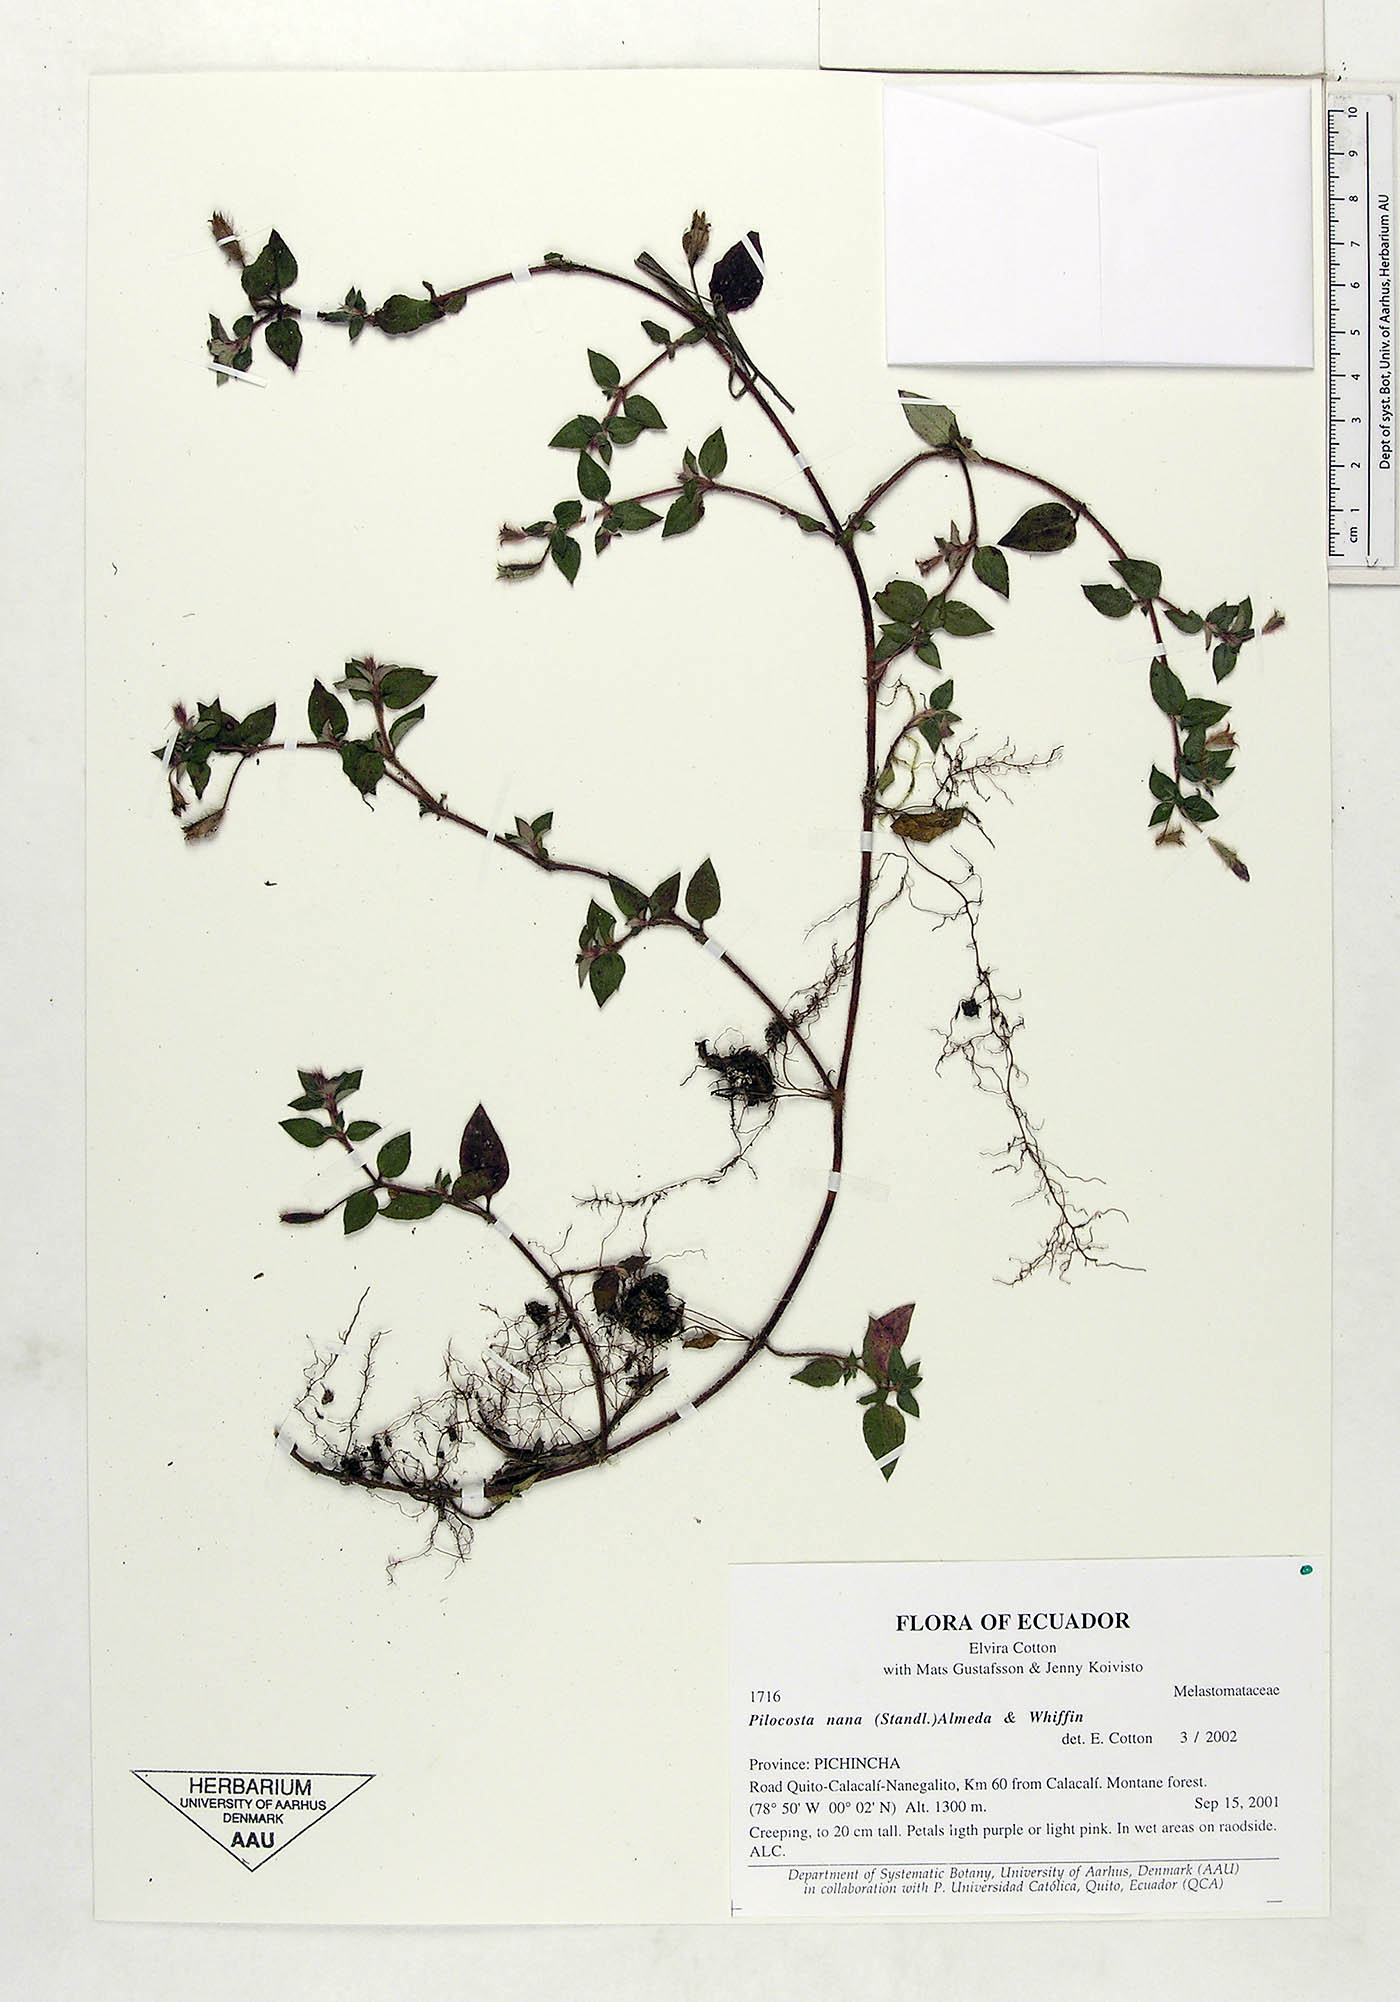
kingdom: Plantae
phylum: Tracheophyta
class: Magnoliopsida
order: Myrtales
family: Melastomataceae
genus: Pilocosta
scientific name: Pilocosta nana
